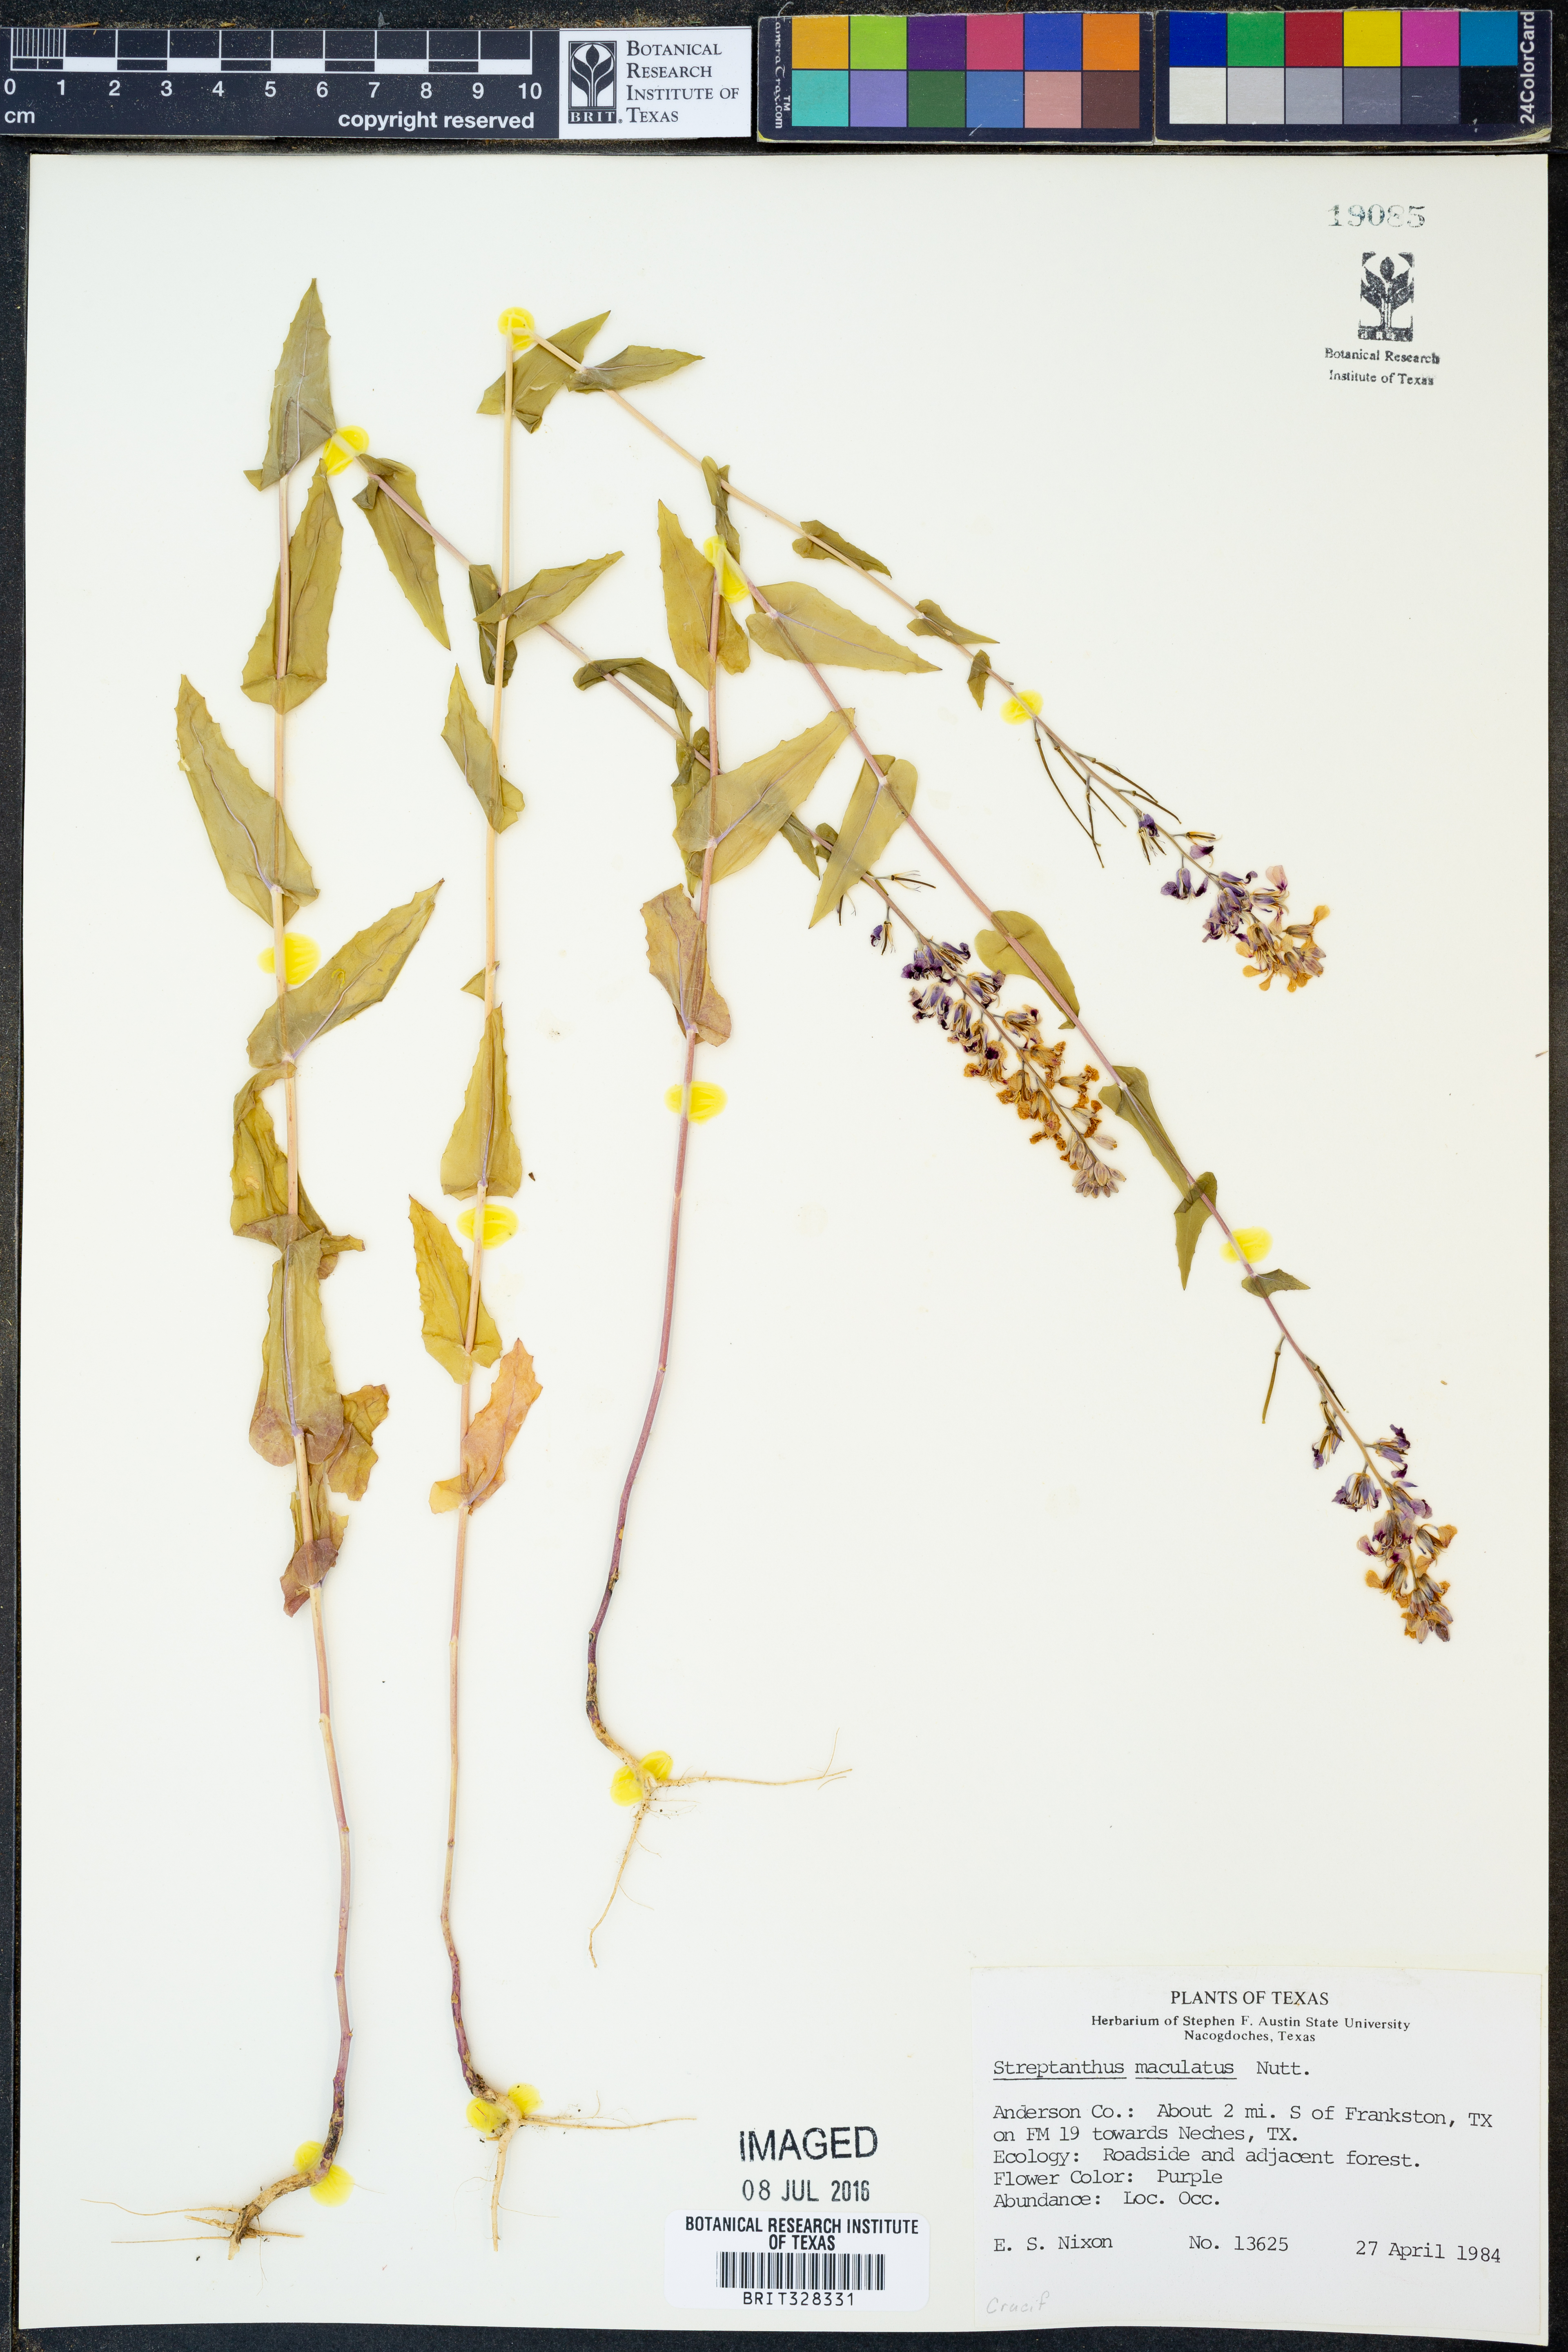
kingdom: Plantae
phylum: Tracheophyta
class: Magnoliopsida
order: Brassicales
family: Brassicaceae
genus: Streptanthus
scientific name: Streptanthus maculatus
